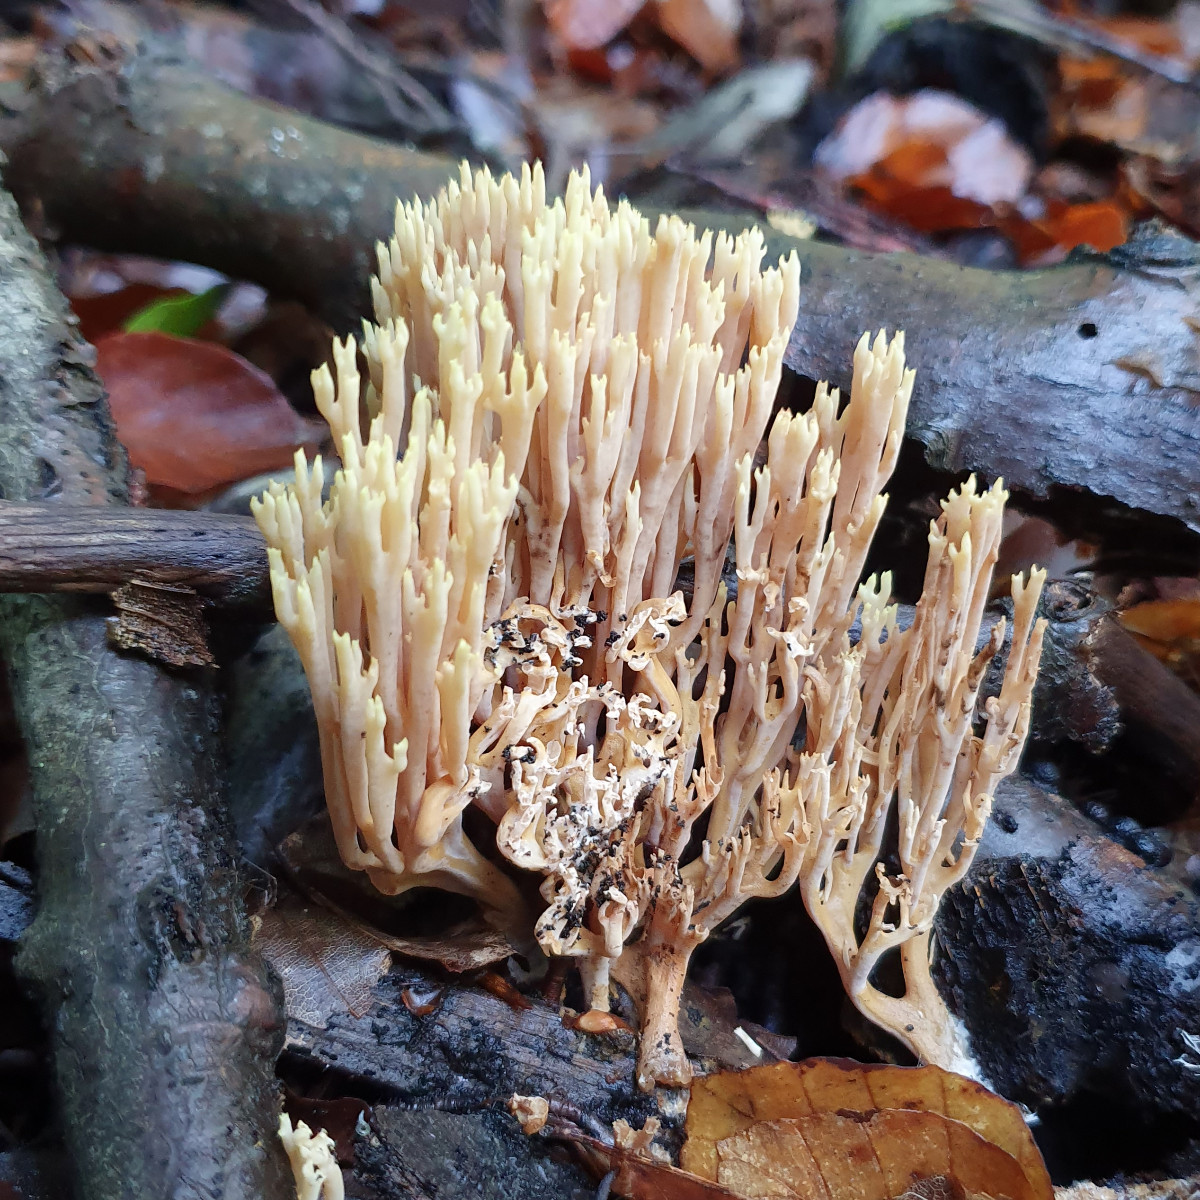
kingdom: Fungi
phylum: Basidiomycota
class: Agaricomycetes
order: Gomphales
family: Gomphaceae
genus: Ramaria
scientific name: Ramaria stricta
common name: rank koralsvamp
